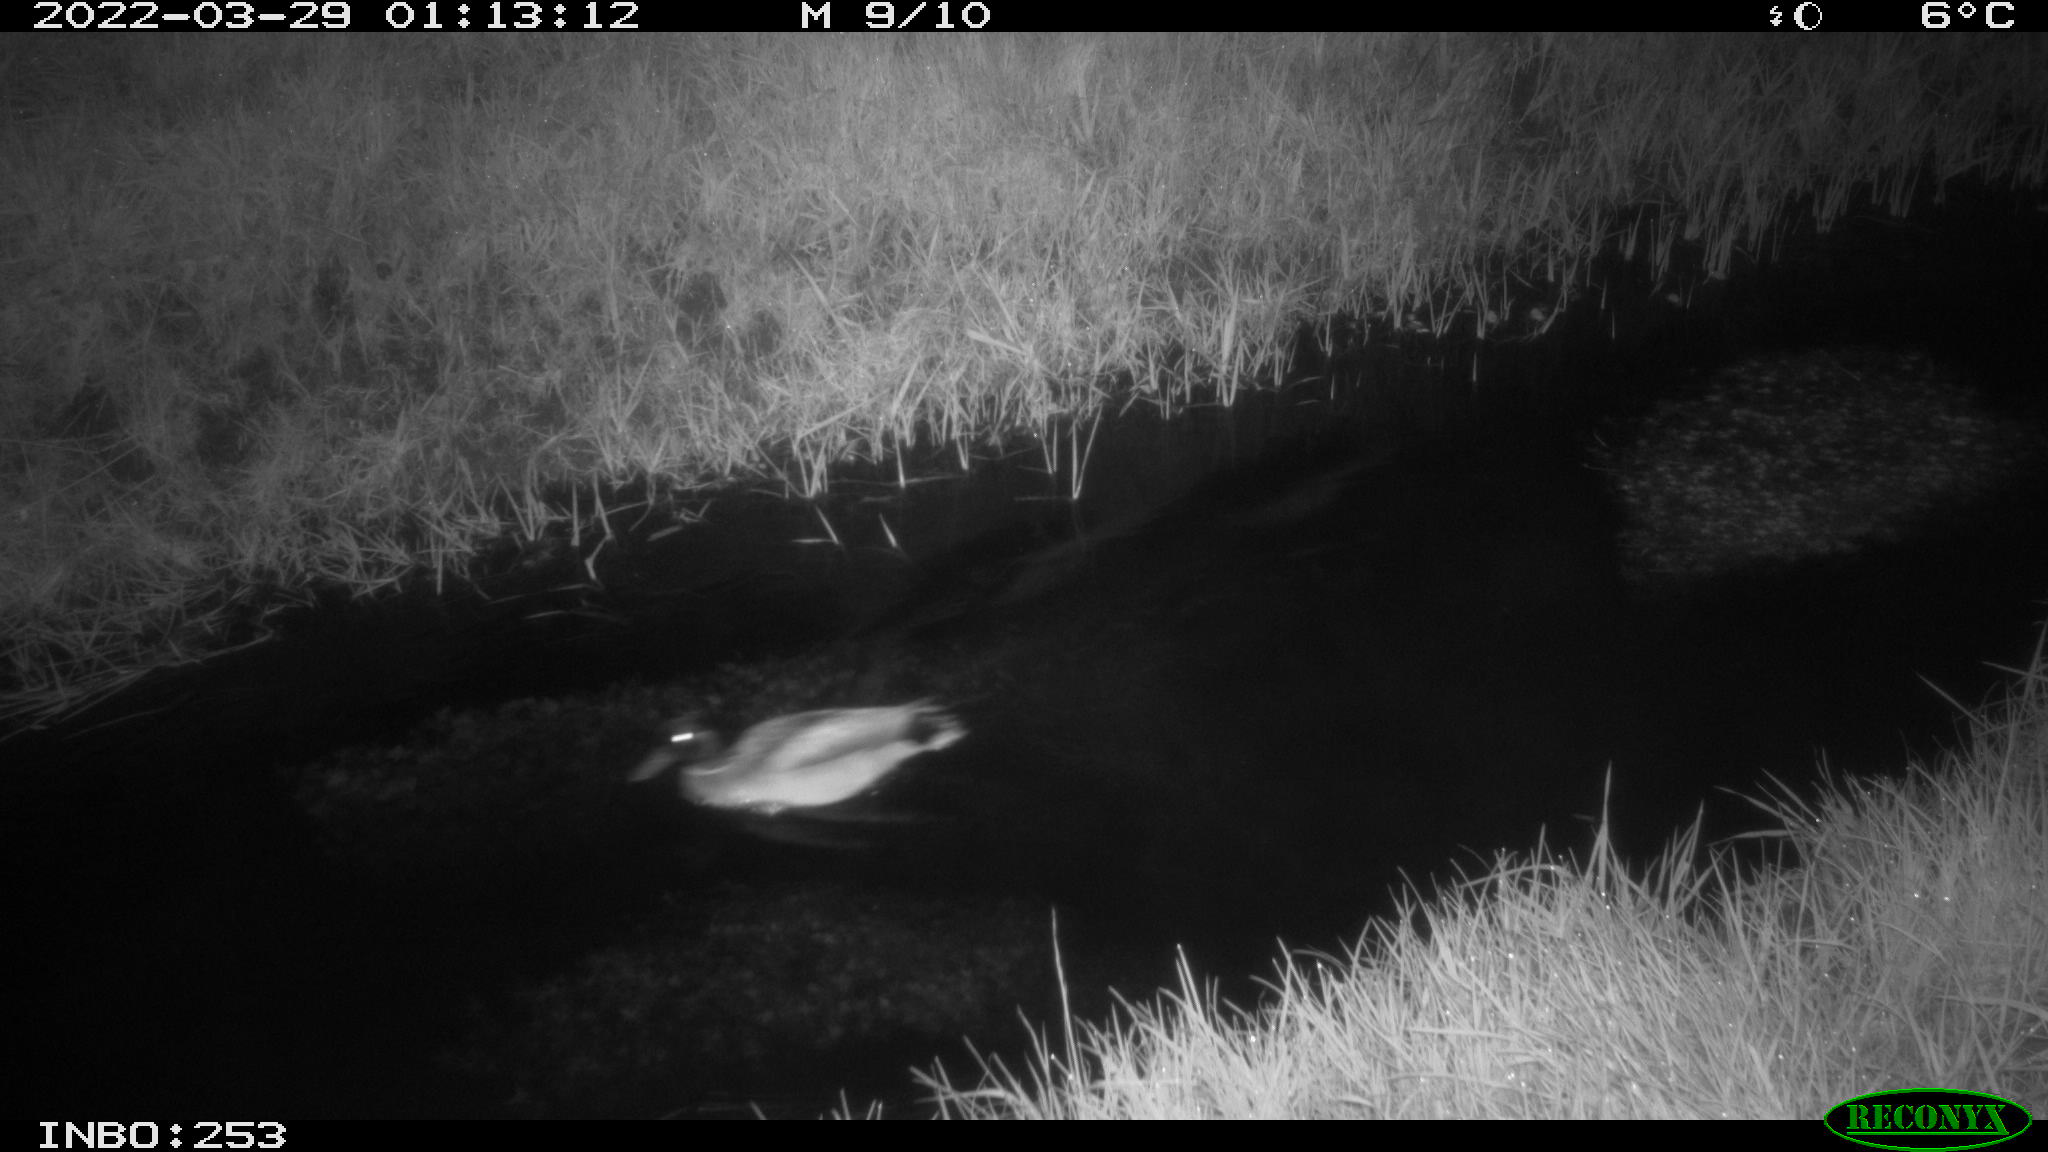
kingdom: Animalia
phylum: Chordata
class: Aves
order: Anseriformes
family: Anatidae
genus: Anas
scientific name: Anas platyrhynchos
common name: Mallard
